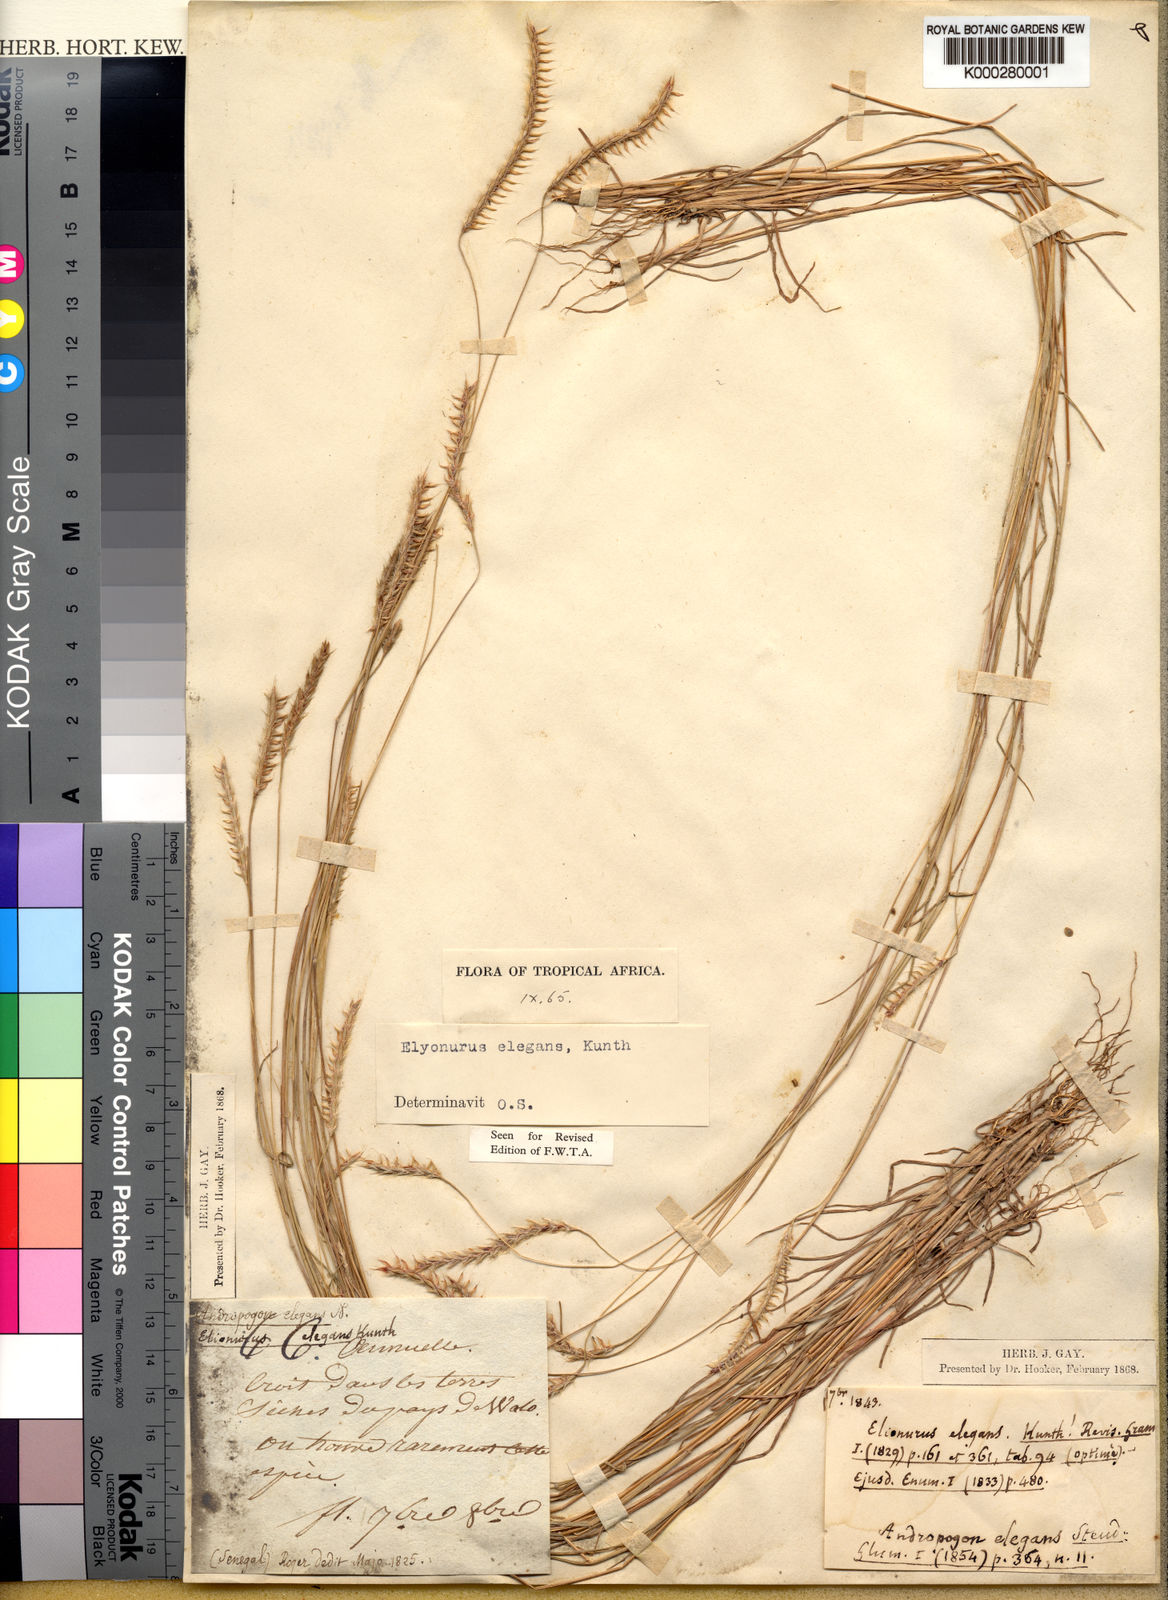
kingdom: Plantae
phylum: Tracheophyta
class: Liliopsida
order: Poales
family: Poaceae
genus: Elionurus
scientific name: Elionurus elegans
